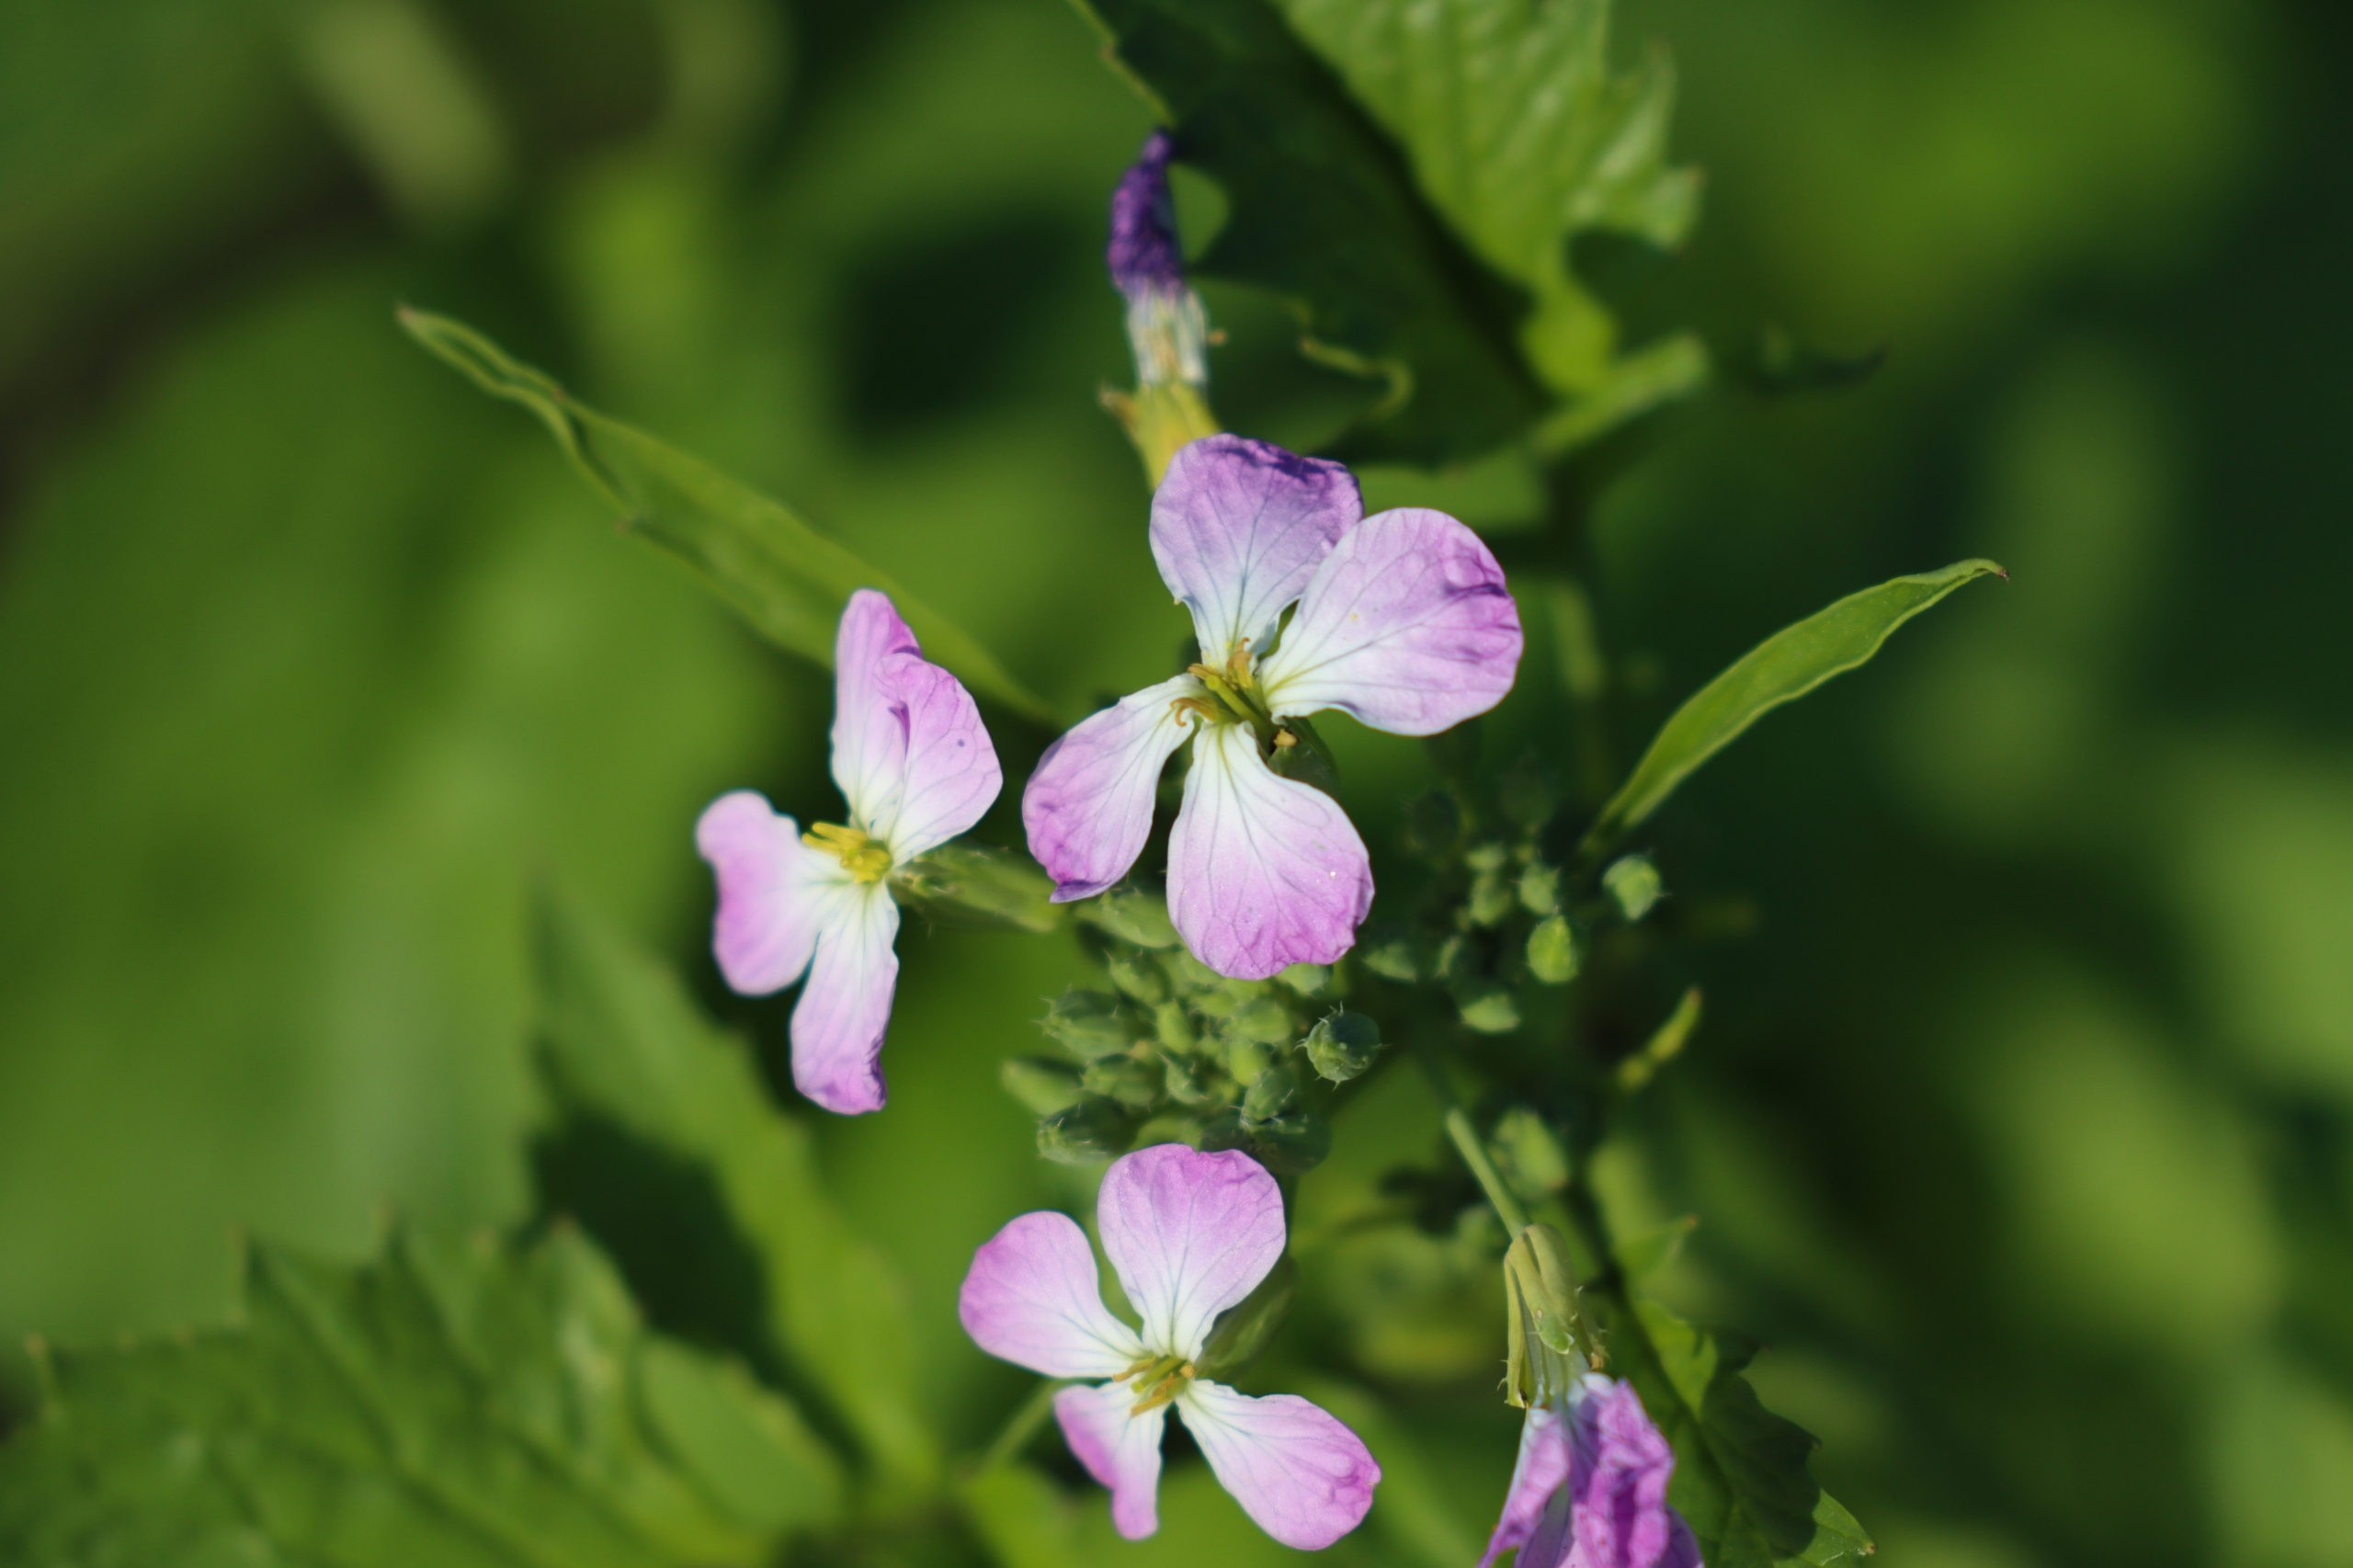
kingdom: Plantae
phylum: Tracheophyta
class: Magnoliopsida
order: Brassicales
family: Brassicaceae
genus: Raphanus
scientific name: Raphanus sativus
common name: Olie-ræddike
